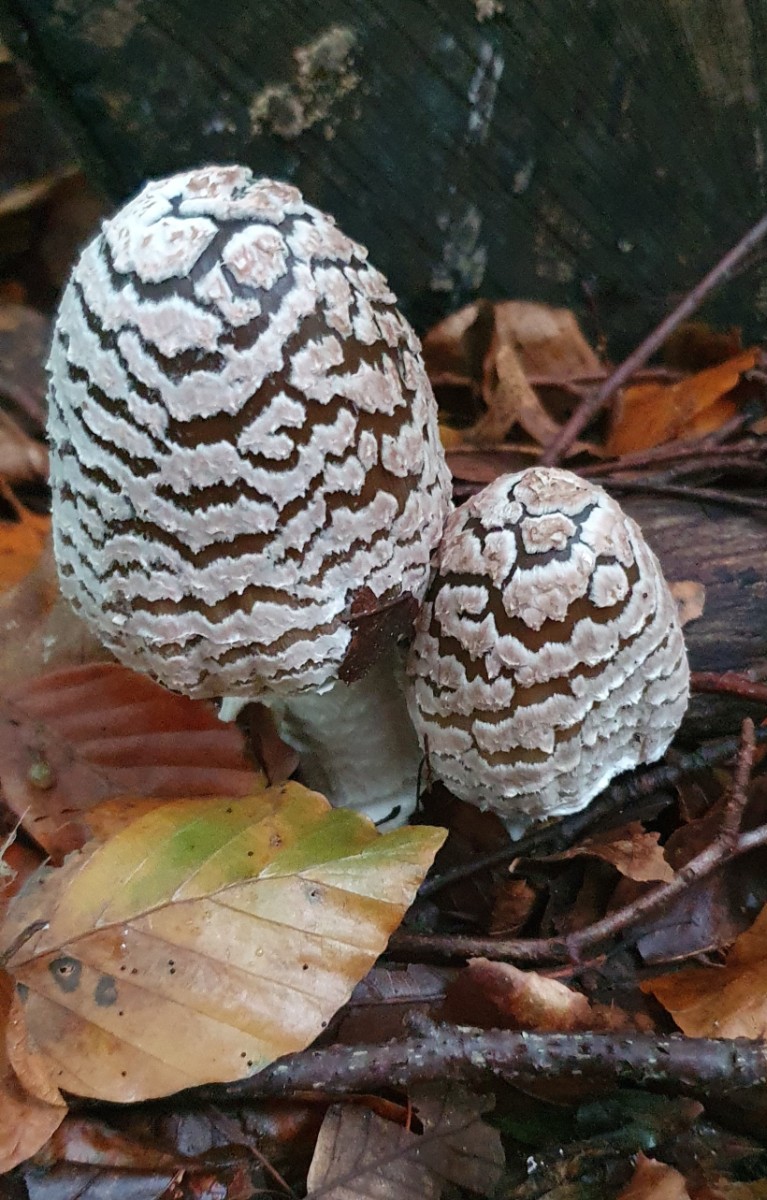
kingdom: Fungi
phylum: Basidiomycota
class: Agaricomycetes
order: Agaricales
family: Psathyrellaceae
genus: Coprinopsis
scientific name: Coprinopsis picacea
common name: skade-blækhat
